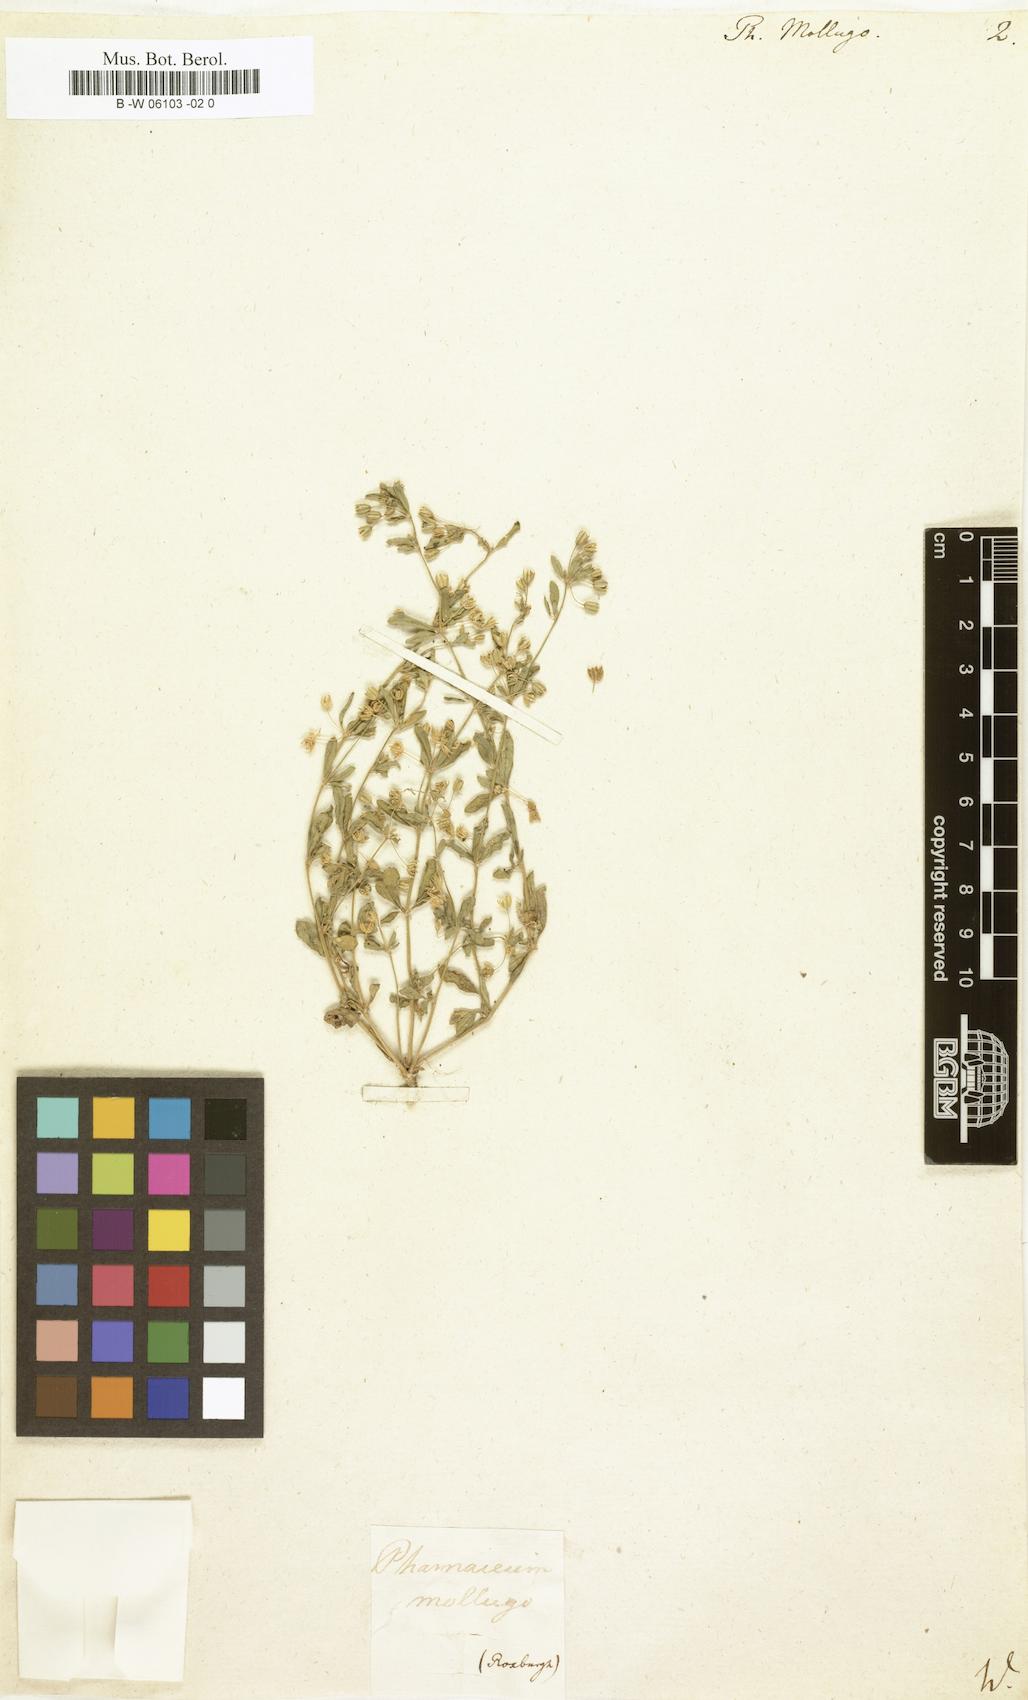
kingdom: Plantae
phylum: Tracheophyta
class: Magnoliopsida
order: Caryophyllales
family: Molluginaceae
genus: Glinus
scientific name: Glinus oppositifolius
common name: Slender carpetweed
